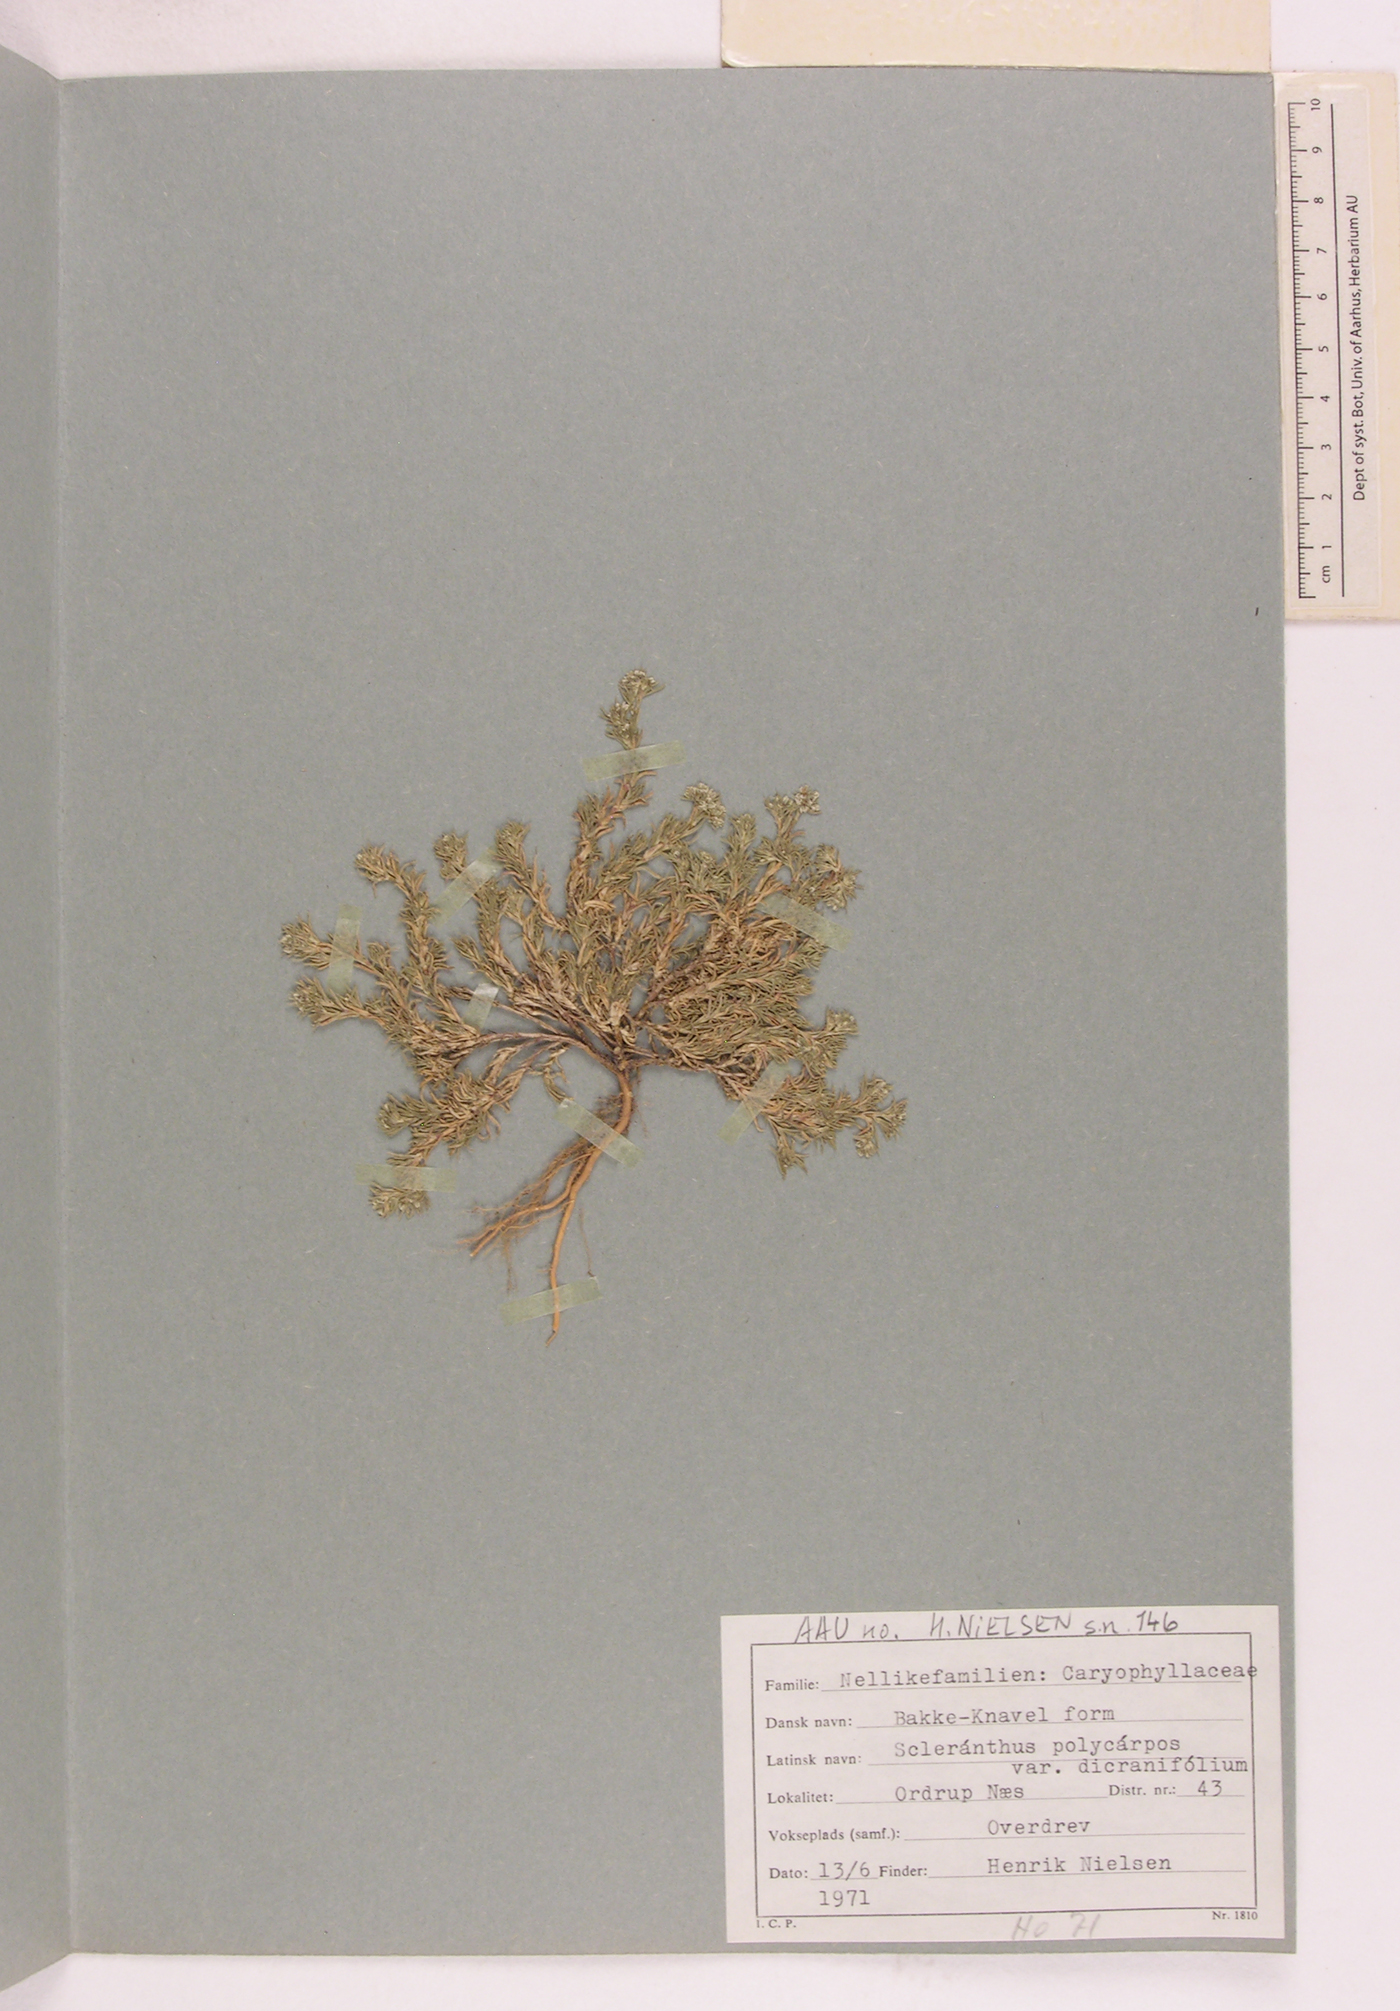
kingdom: Plantae
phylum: Tracheophyta
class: Magnoliopsida
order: Caryophyllales
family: Caryophyllaceae
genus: Scleranthus
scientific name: Scleranthus annuus
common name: Annual knawel
